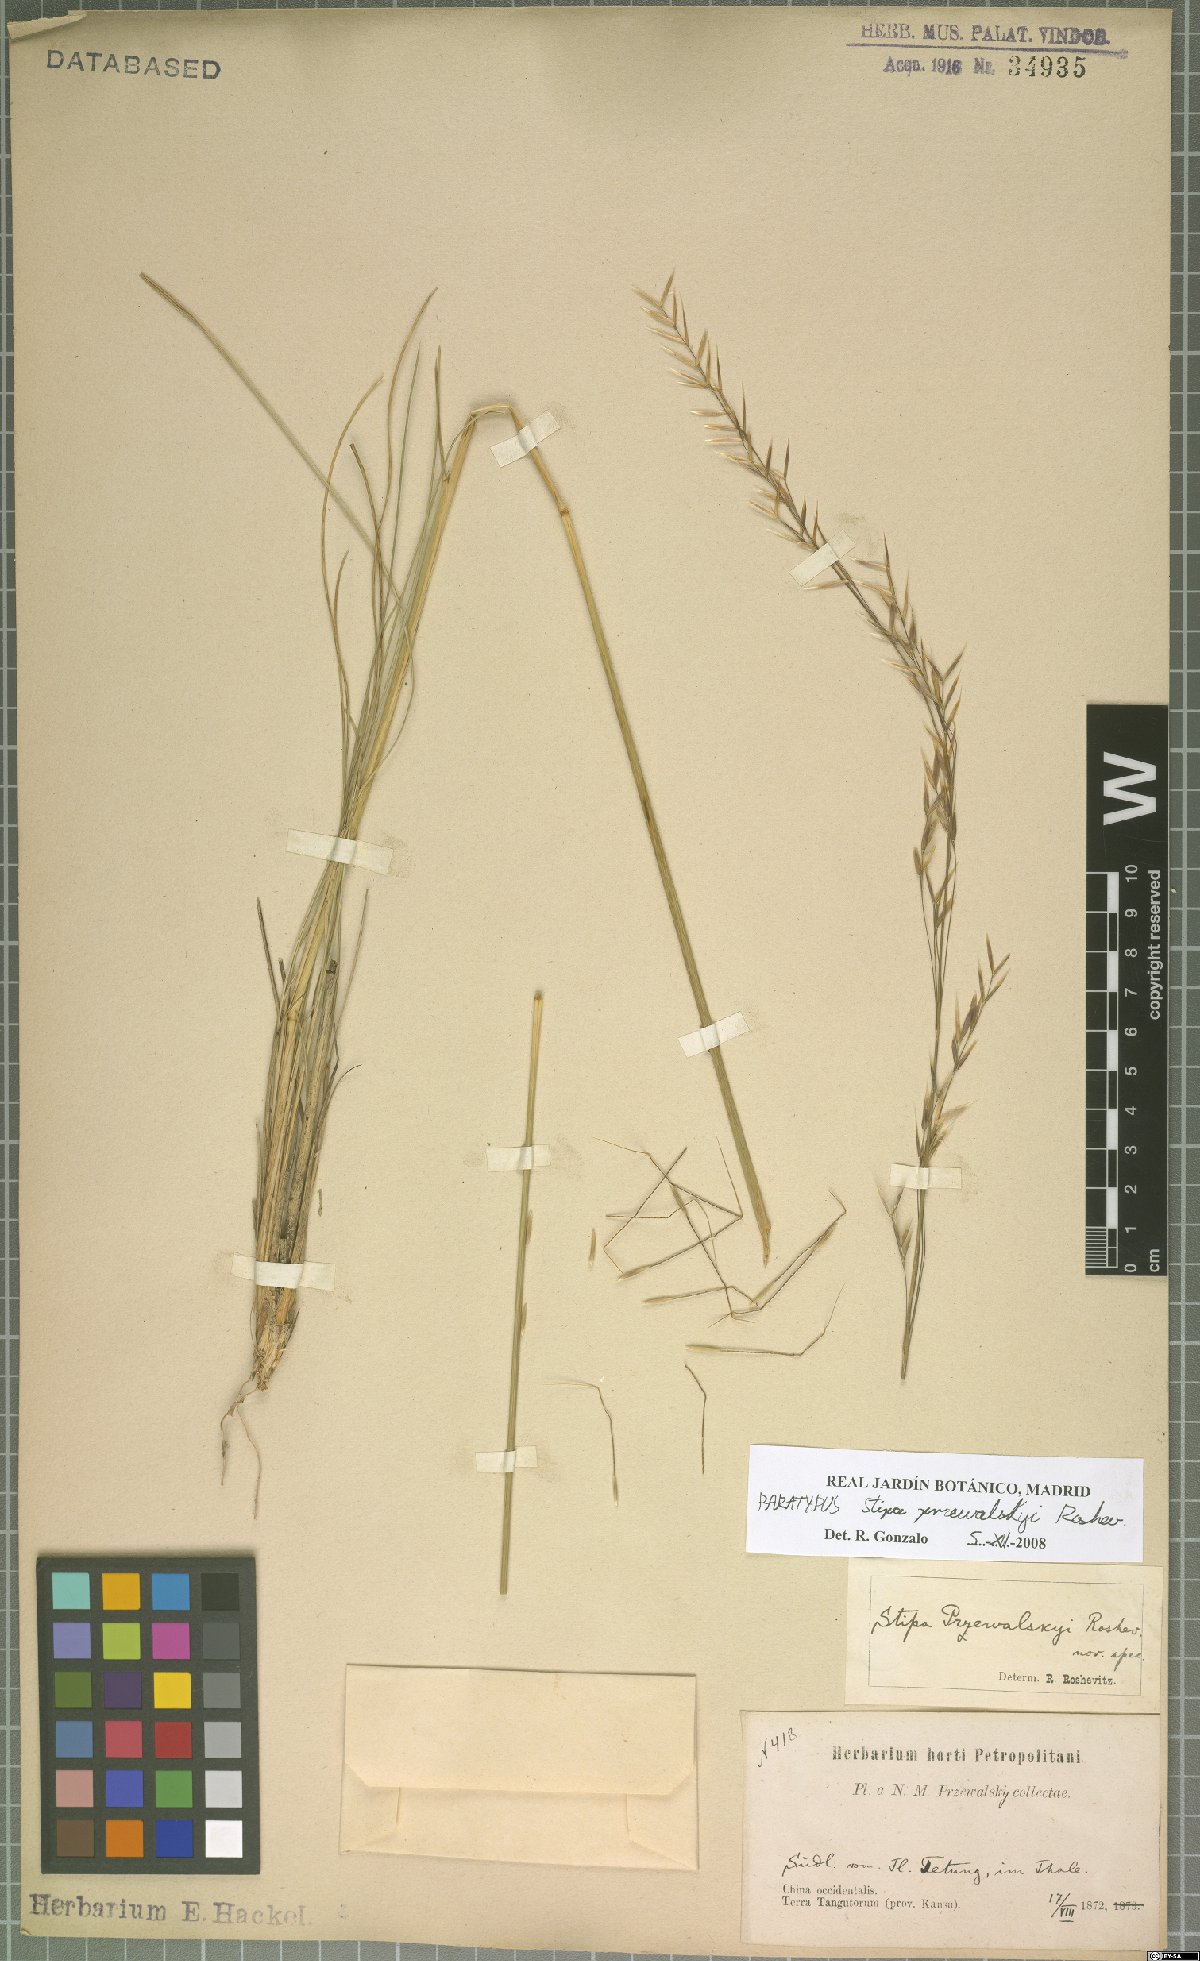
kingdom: Plantae
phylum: Tracheophyta
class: Liliopsida
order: Poales
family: Poaceae
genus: Stipa
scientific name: Stipa przewalskyi
